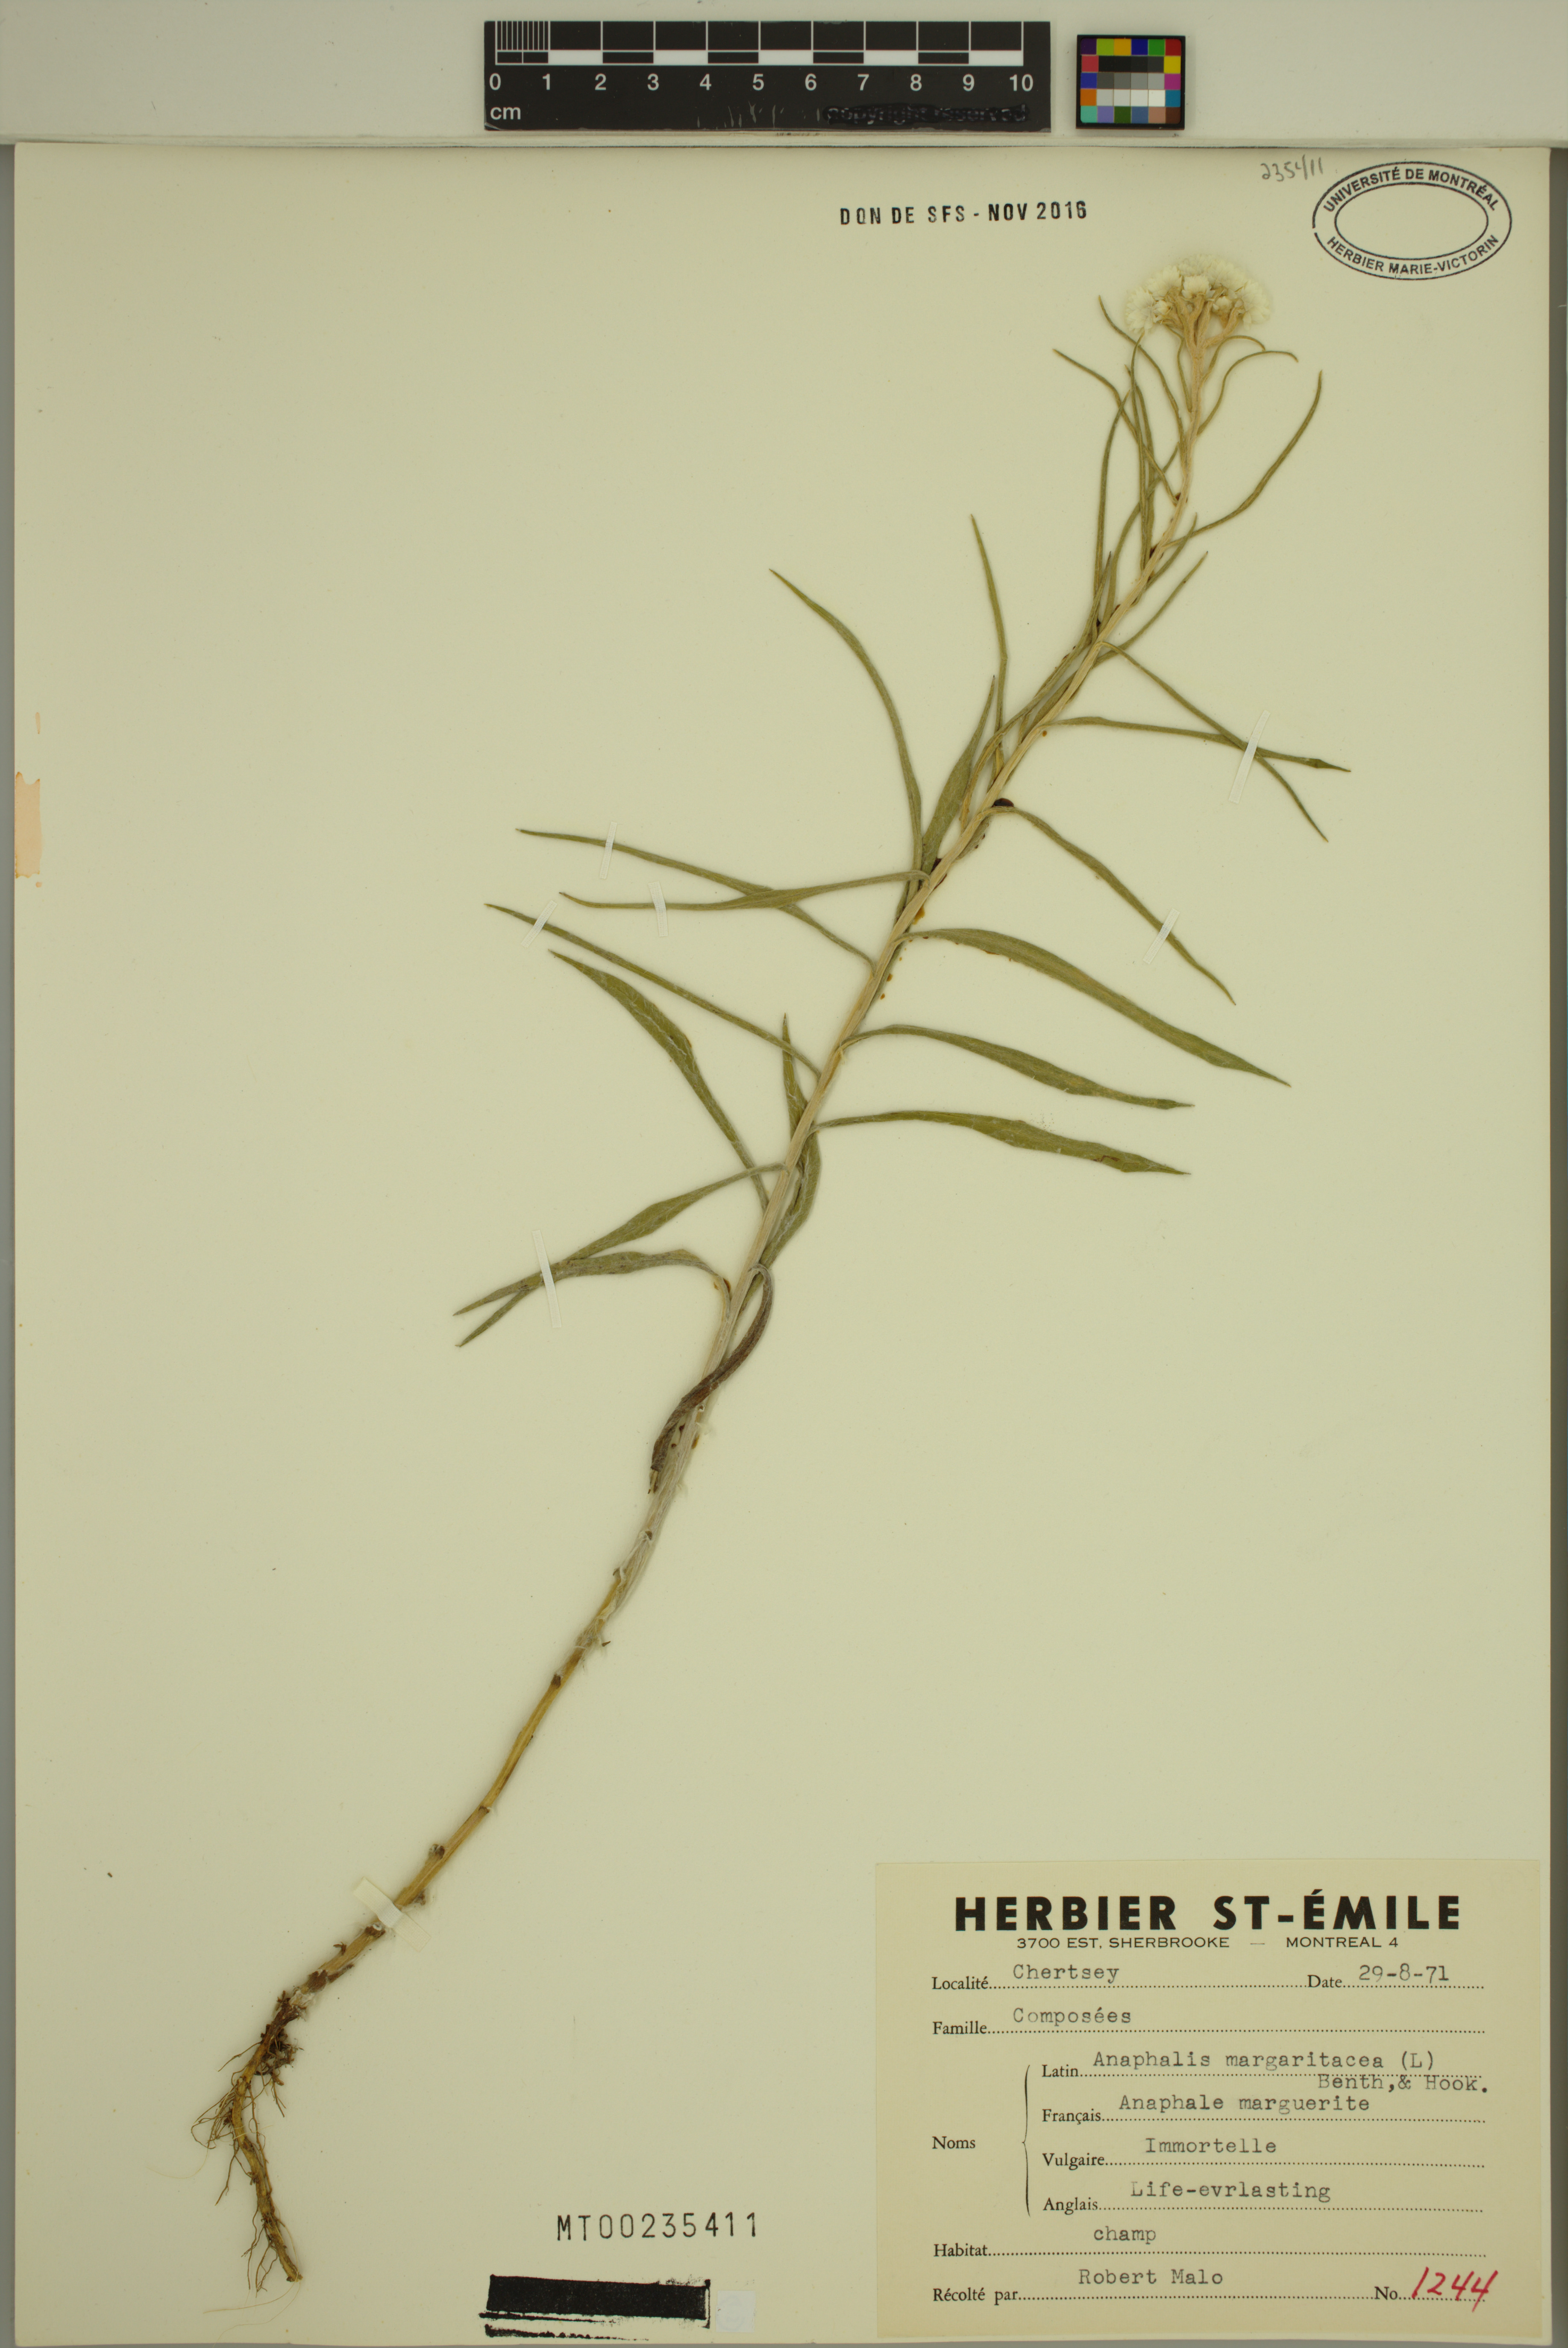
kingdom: Plantae
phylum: Tracheophyta
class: Magnoliopsida
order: Asterales
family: Asteraceae
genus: Anaphalis
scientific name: Anaphalis margaritacea
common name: Pearly everlasting
